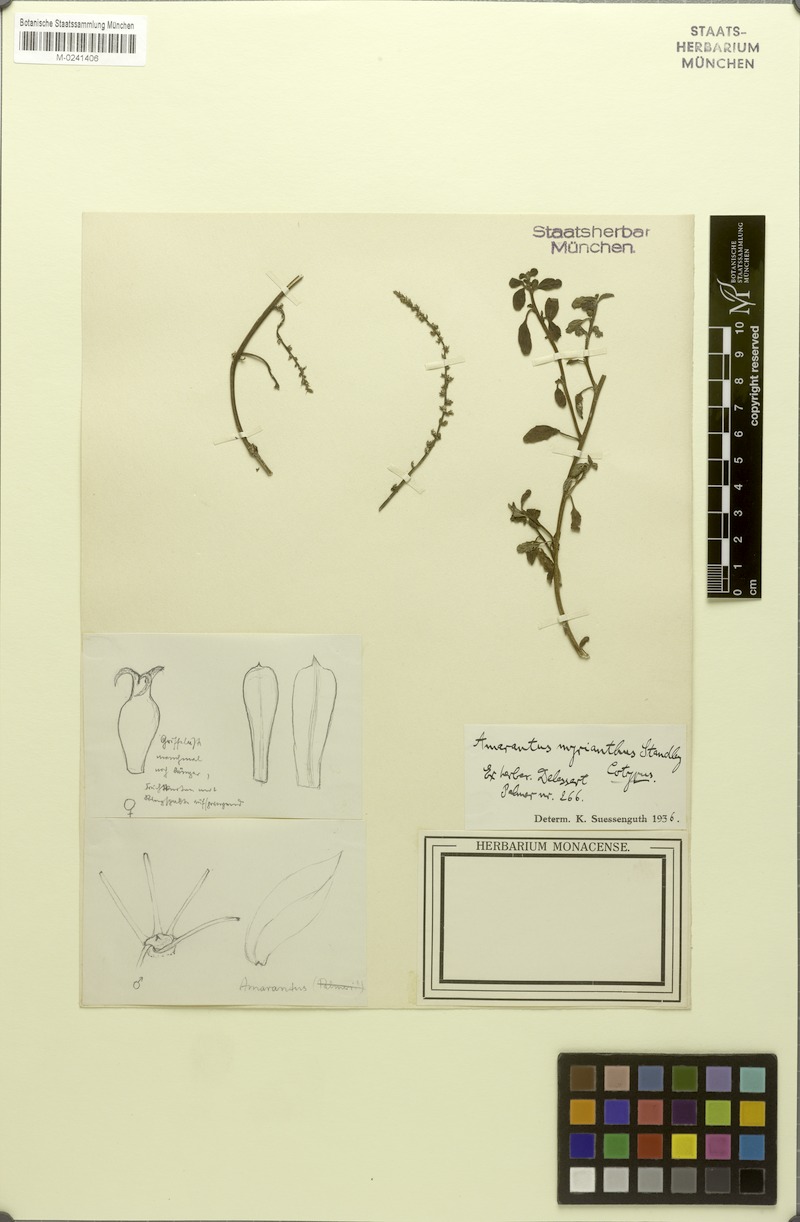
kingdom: Plantae
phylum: Tracheophyta
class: Magnoliopsida
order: Caryophyllales
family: Amaranthaceae
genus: Amaranthus
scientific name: Amaranthus greggii
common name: Josiah amaranth
